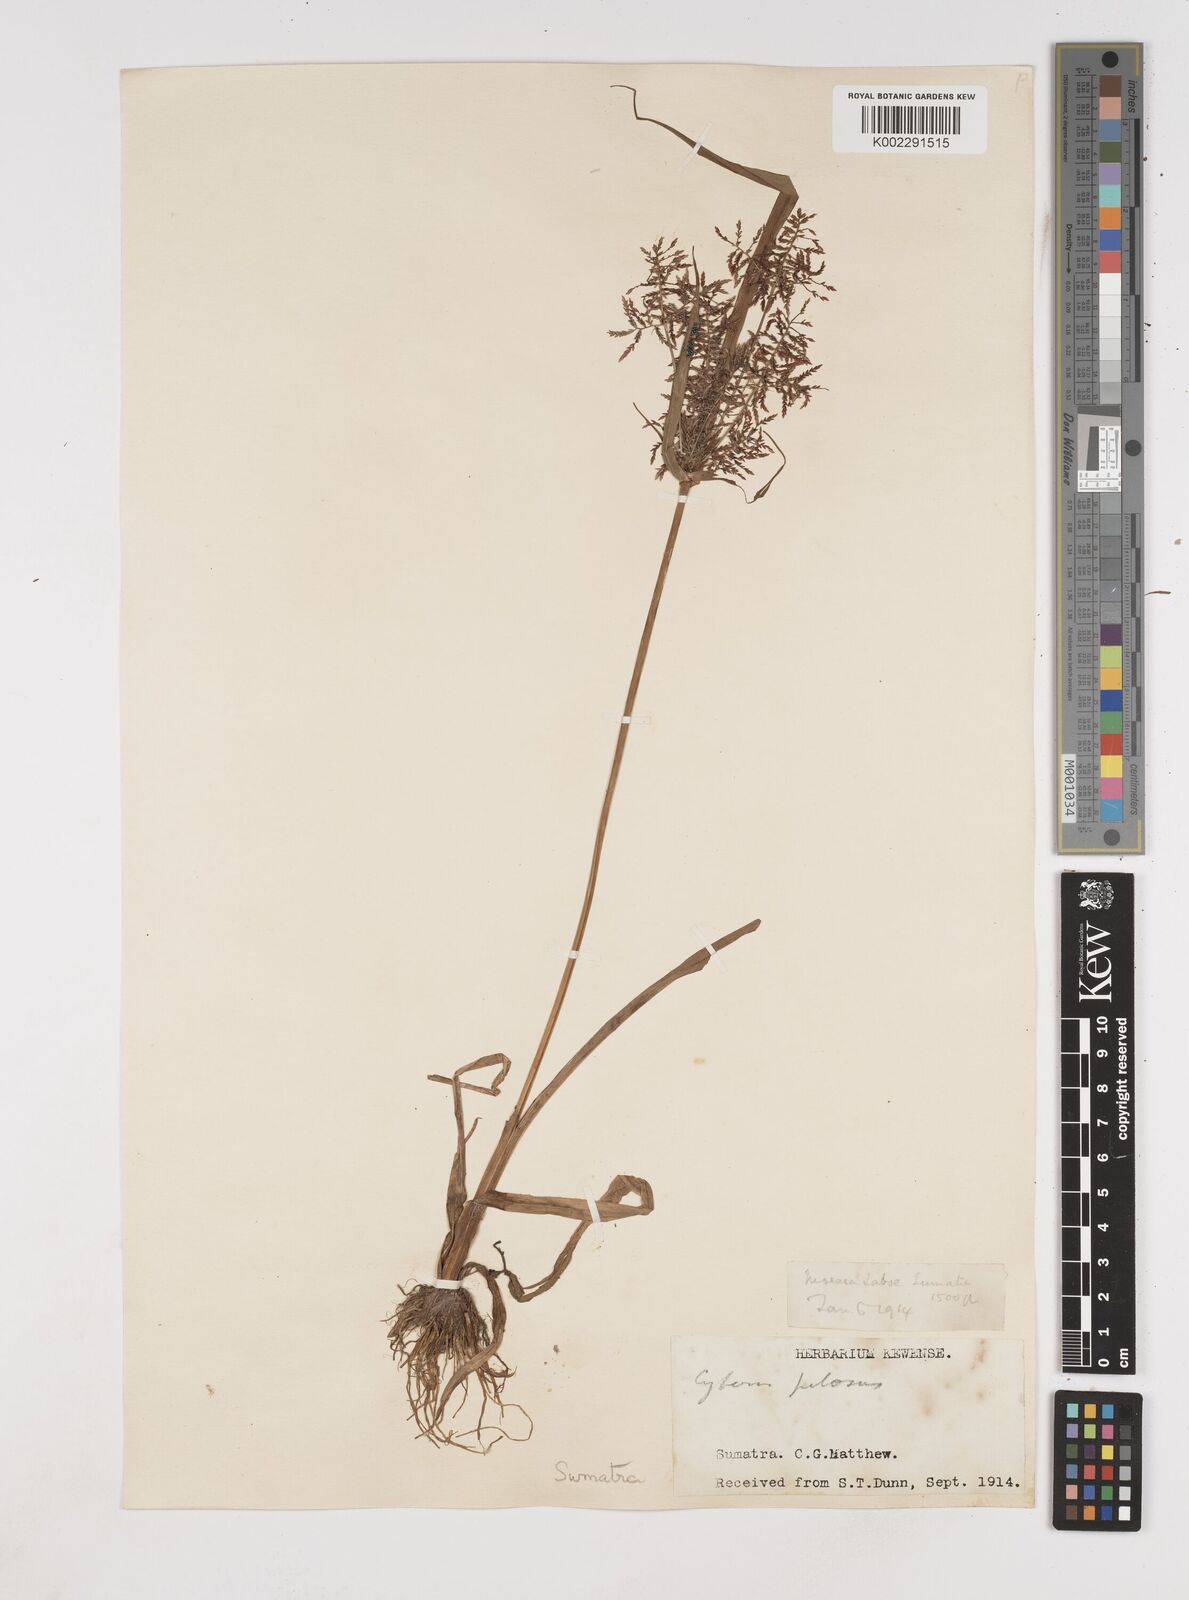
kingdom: Plantae
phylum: Tracheophyta
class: Liliopsida
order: Poales
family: Cyperaceae
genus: Cyperus
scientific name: Cyperus pilosus
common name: Fuzzy flatsedge
